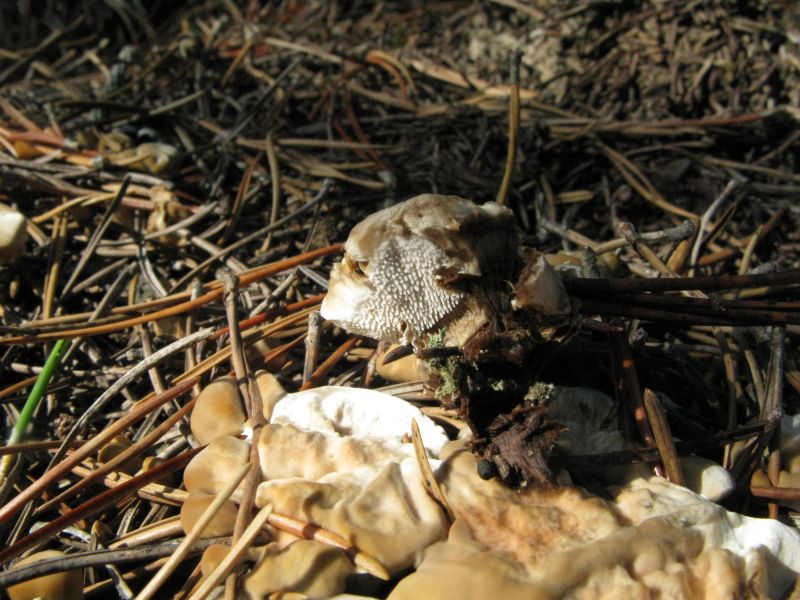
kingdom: Fungi
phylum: Basidiomycota
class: Agaricomycetes
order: Thelephorales
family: Thelephoraceae
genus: Phellodon
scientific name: Phellodon tomentosus
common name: tragtformet duftpigsvamp
